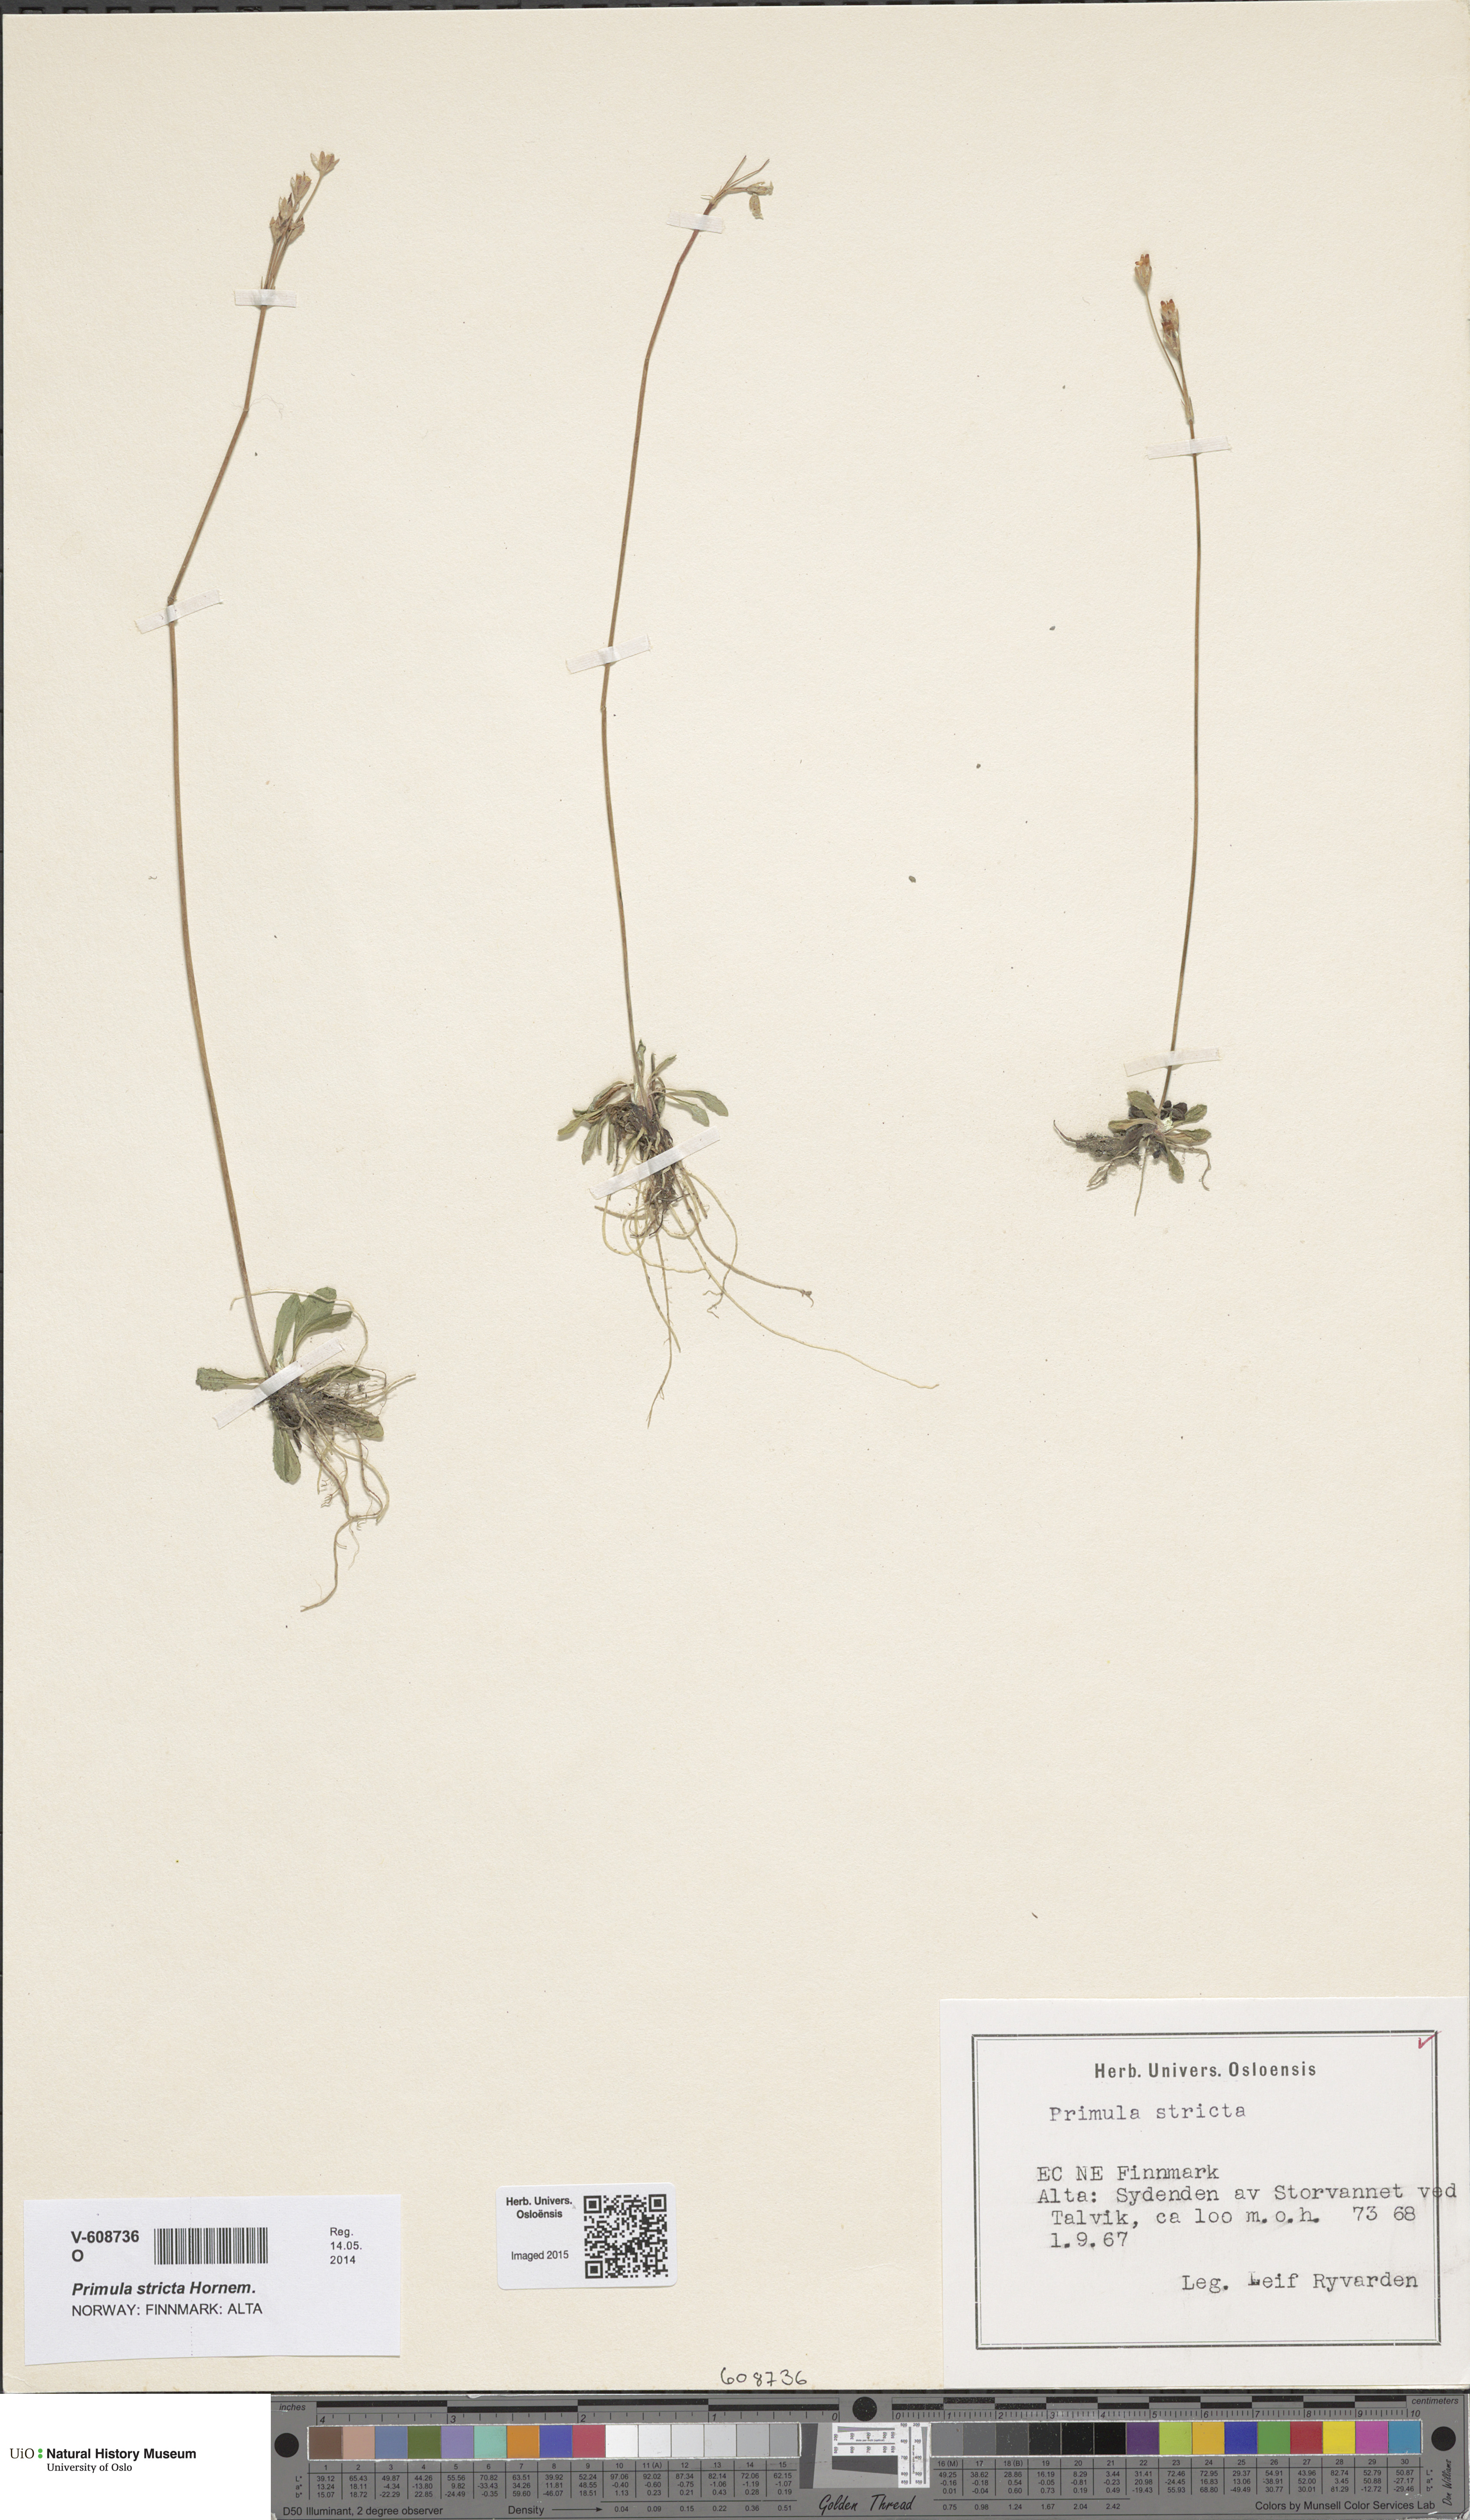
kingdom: Plantae
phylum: Tracheophyta
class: Magnoliopsida
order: Ericales
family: Primulaceae
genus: Primula
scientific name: Primula stricta
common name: Coastal primrose
